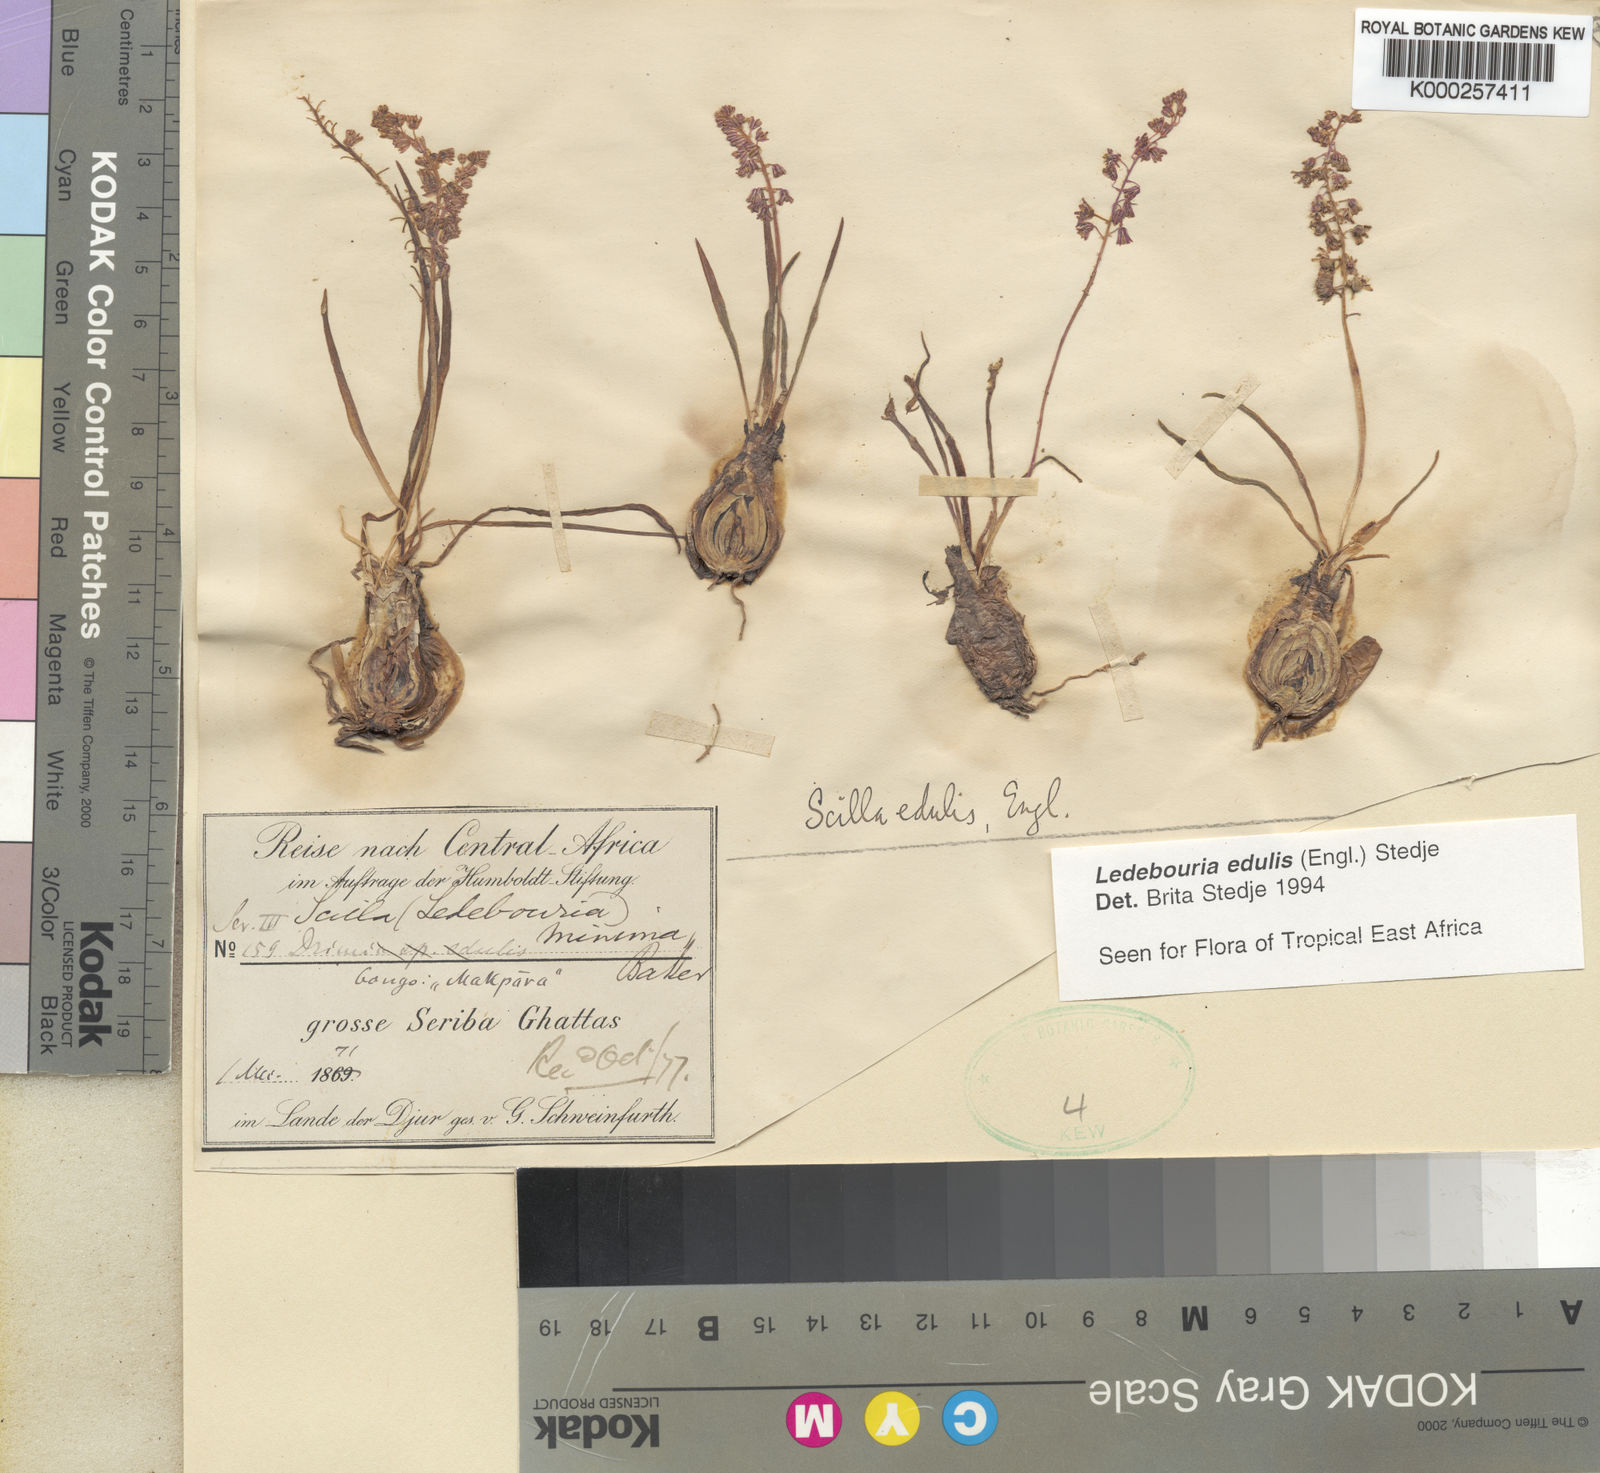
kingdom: Plantae
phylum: Tracheophyta
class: Liliopsida
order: Asparagales
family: Asparagaceae
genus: Ledebouria
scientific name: Ledebouria edulis
